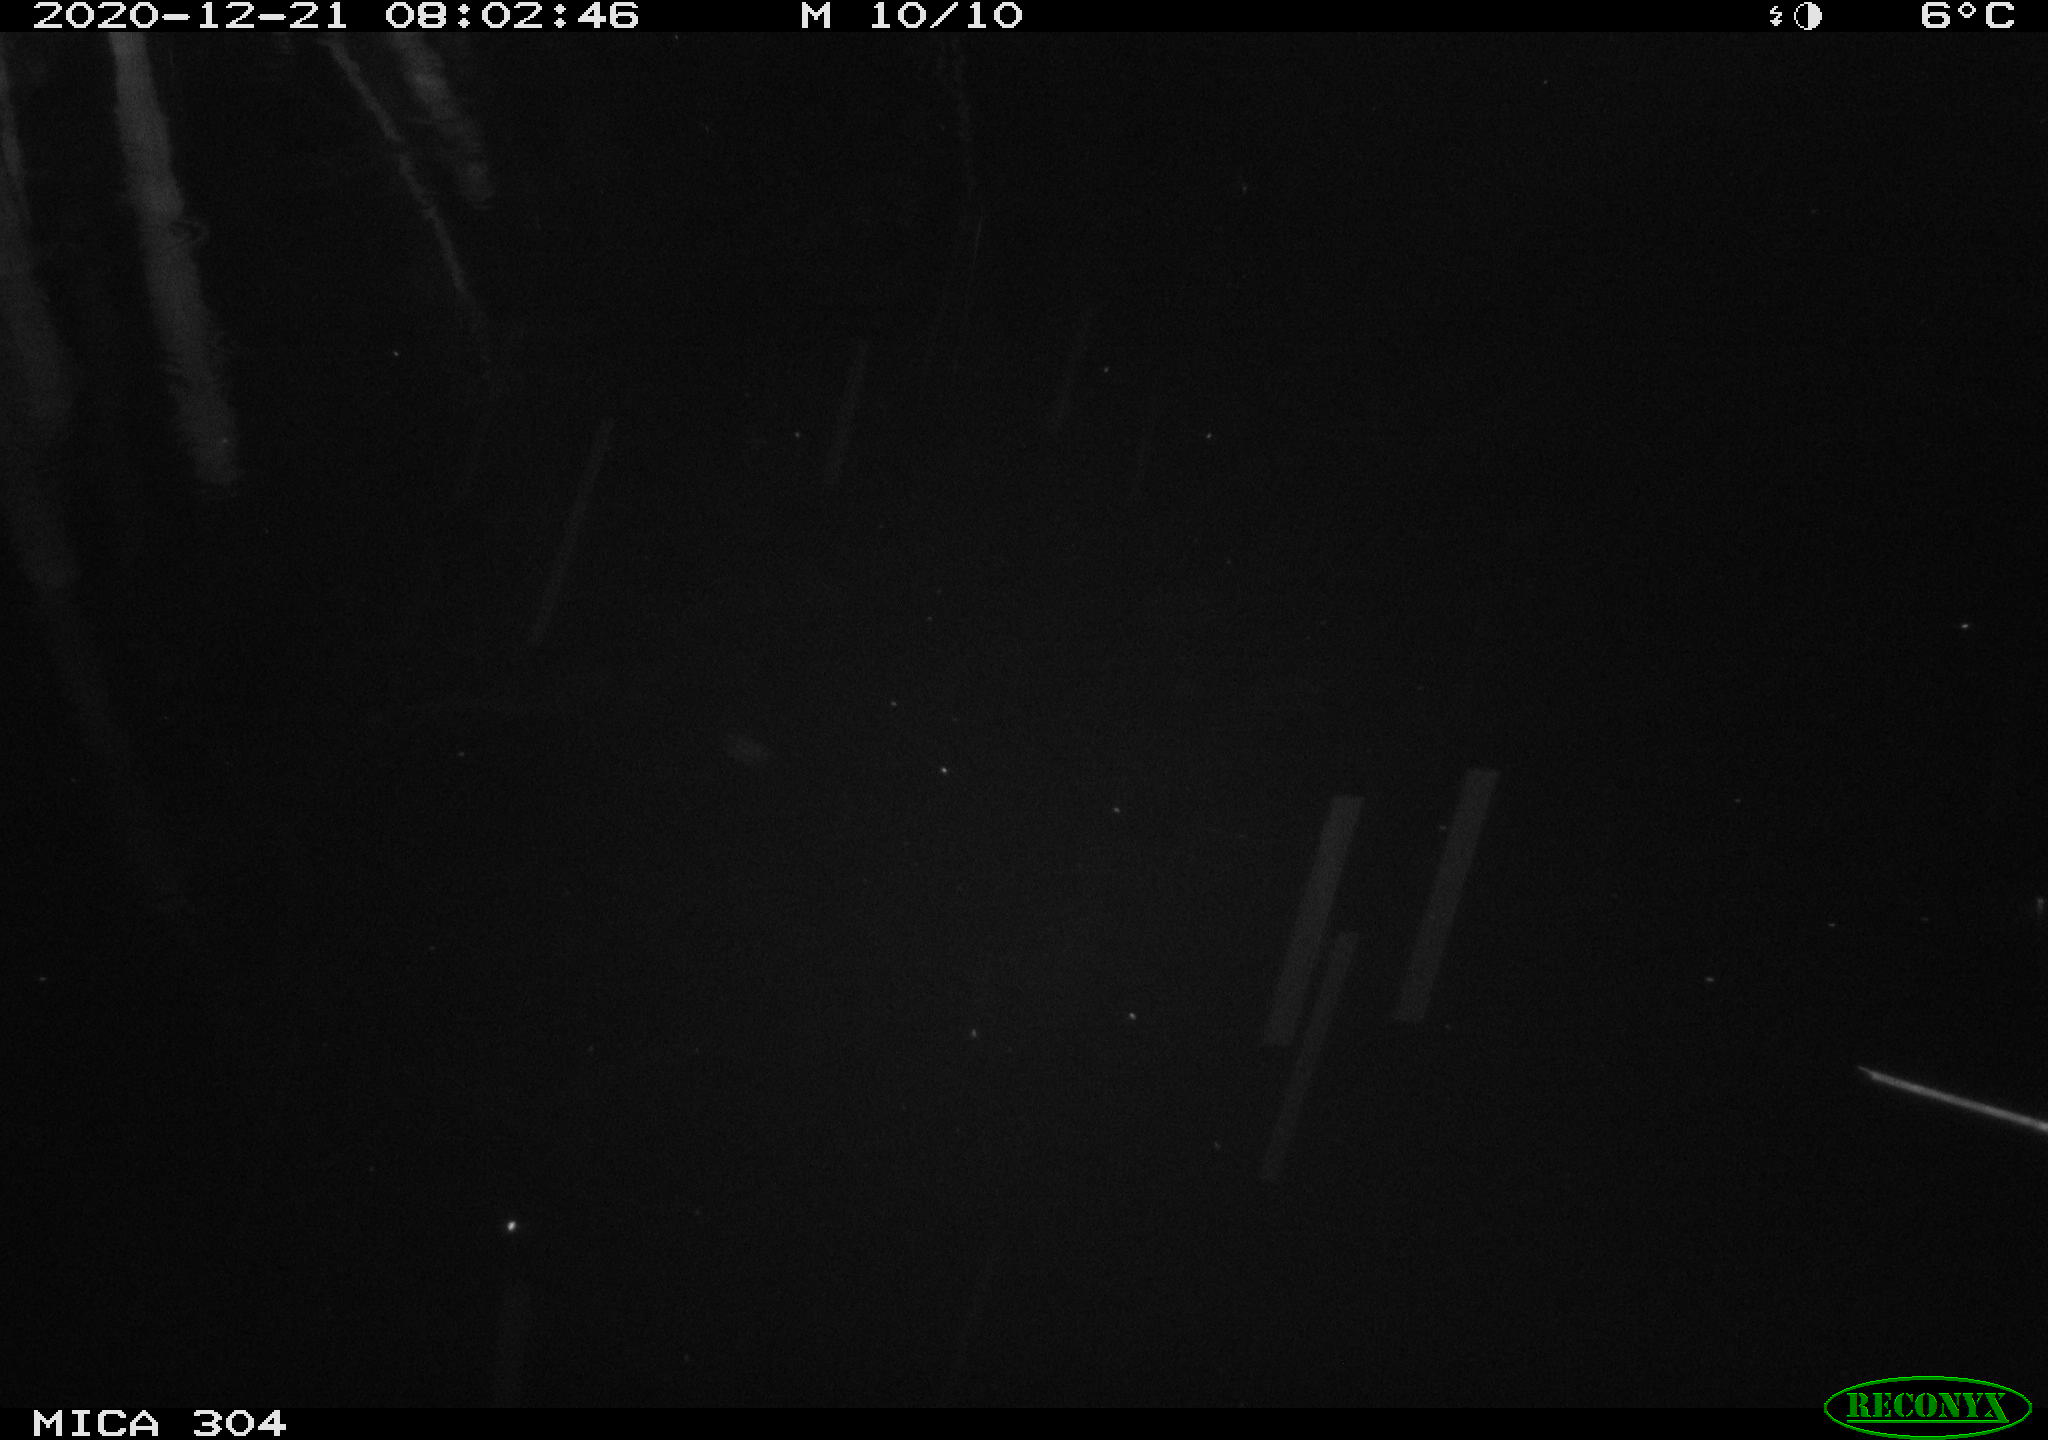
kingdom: Animalia
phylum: Chordata
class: Aves
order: Gruiformes
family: Rallidae
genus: Fulica
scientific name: Fulica atra
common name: Eurasian coot
